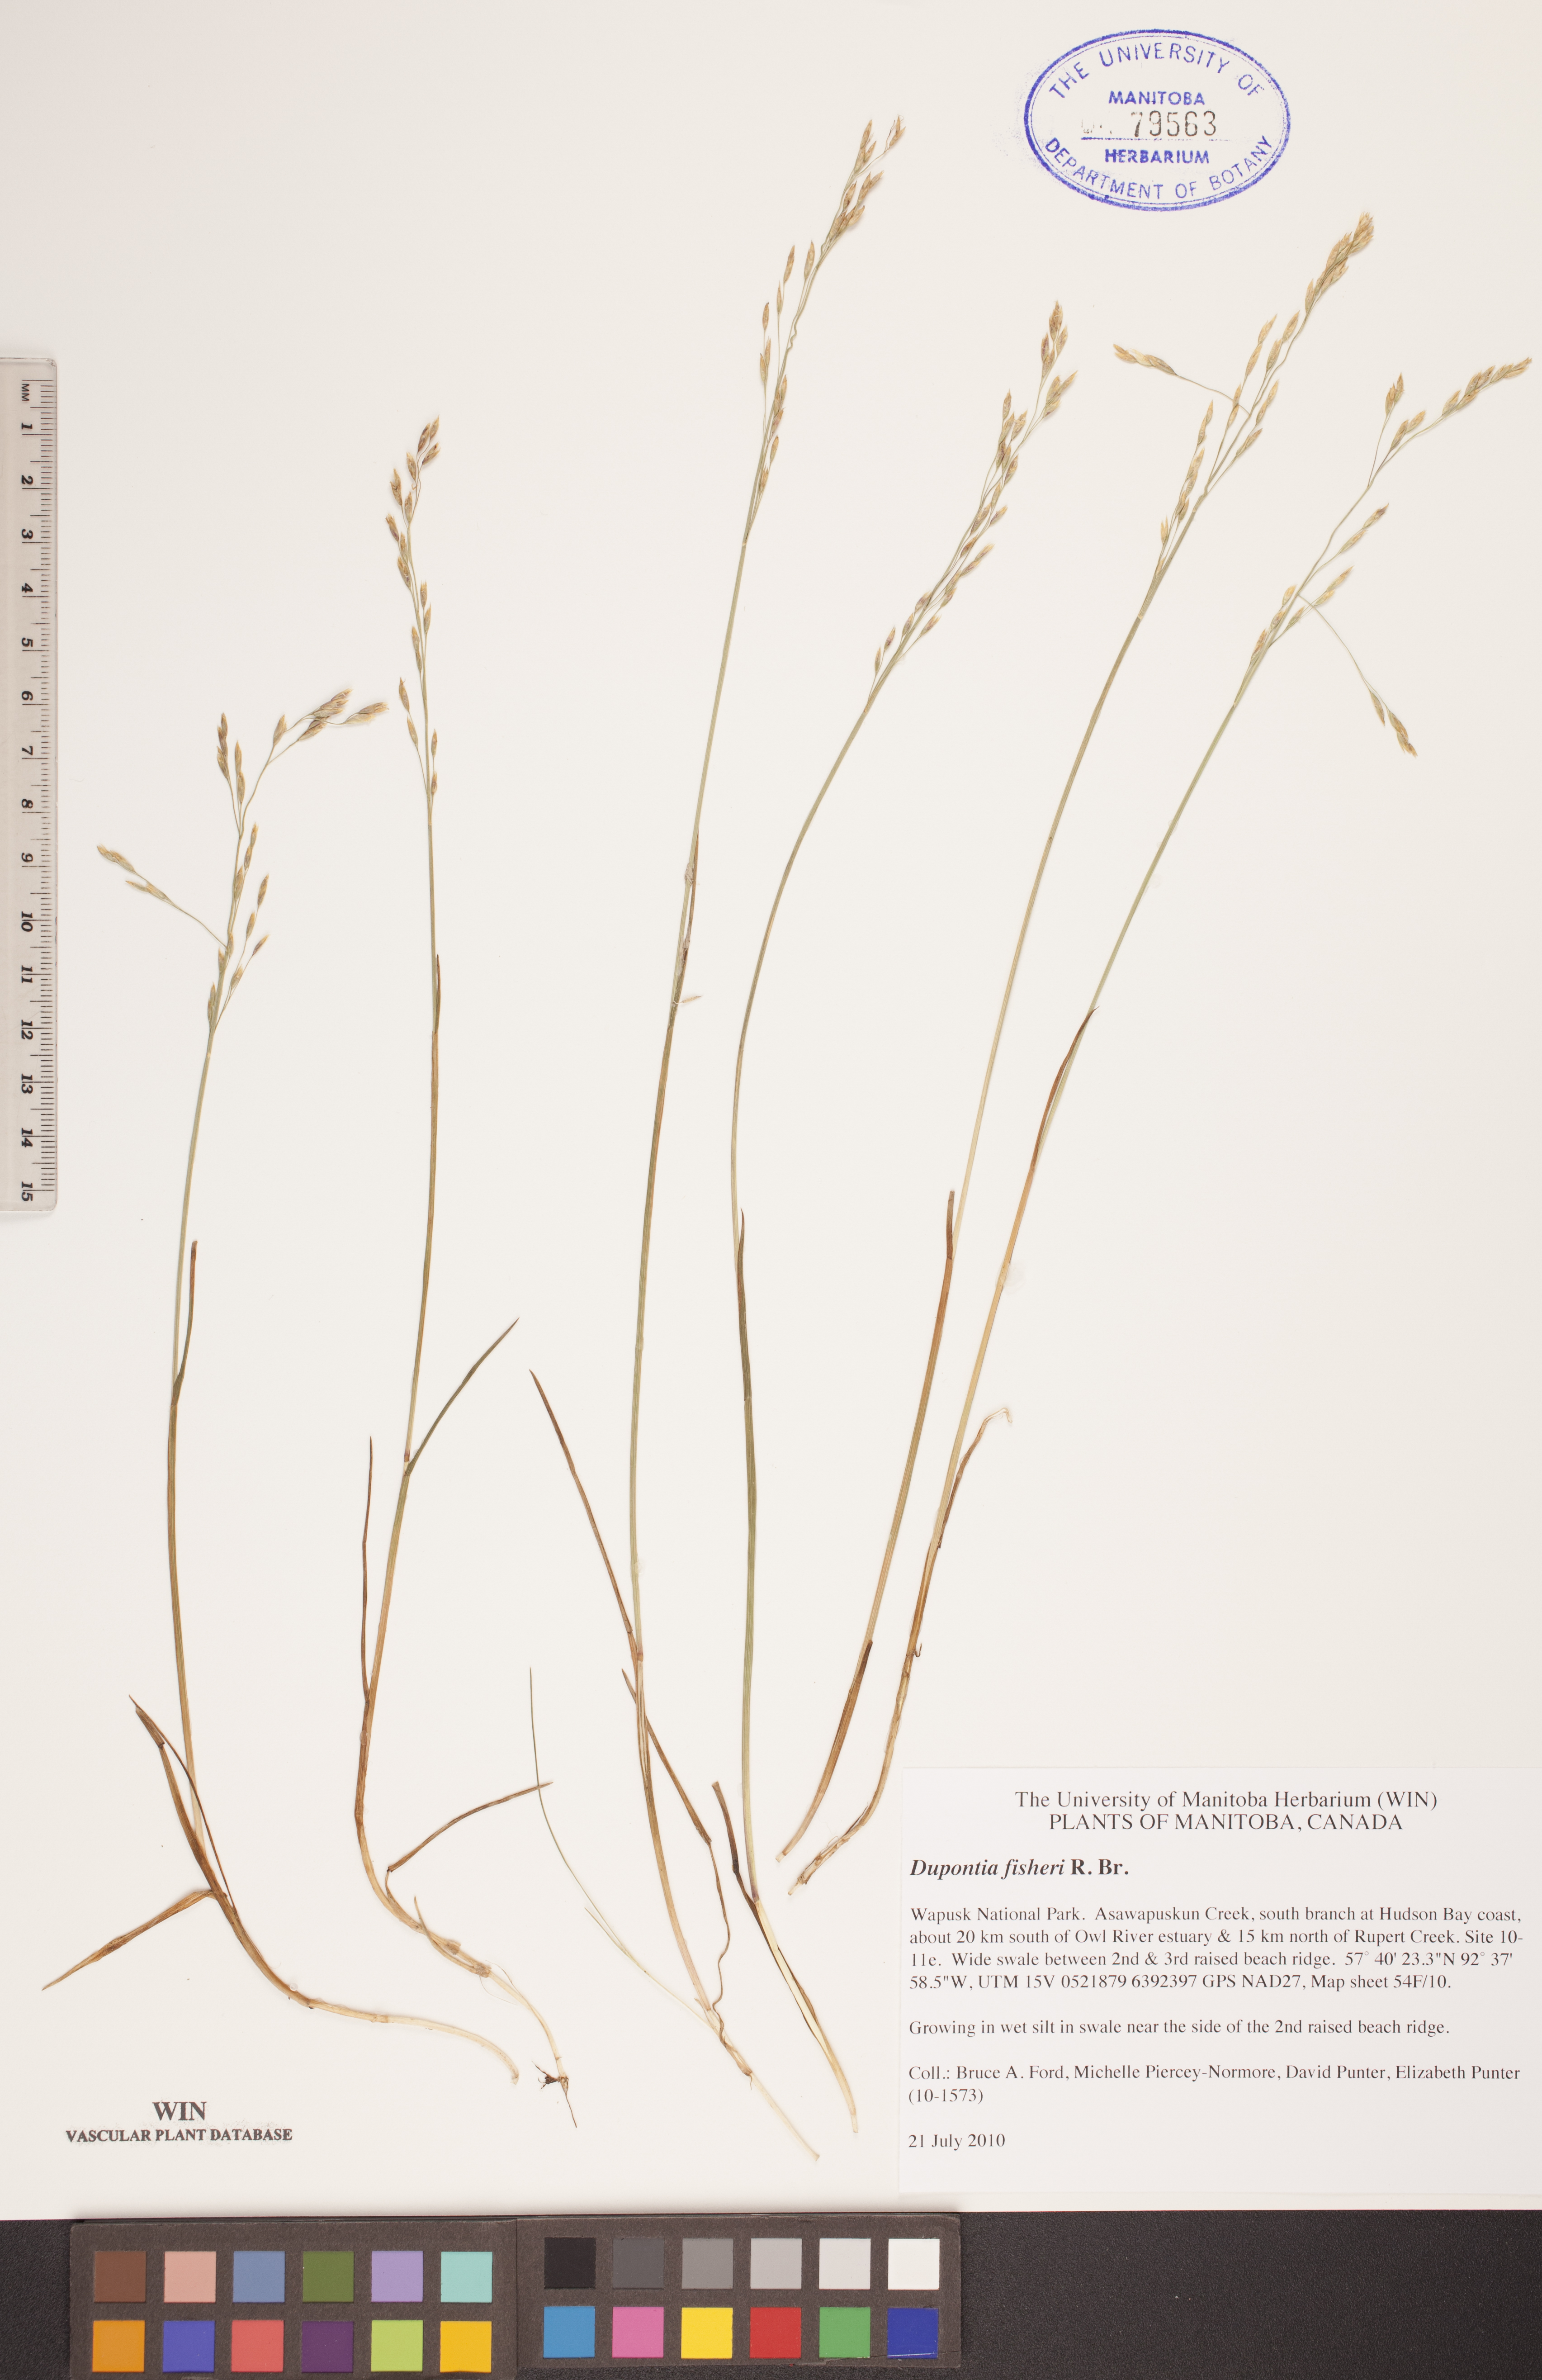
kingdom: Plantae
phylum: Tracheophyta
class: Liliopsida
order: Poales
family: Poaceae
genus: Dupontia
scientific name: Dupontia fisheri
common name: Tundra grass
